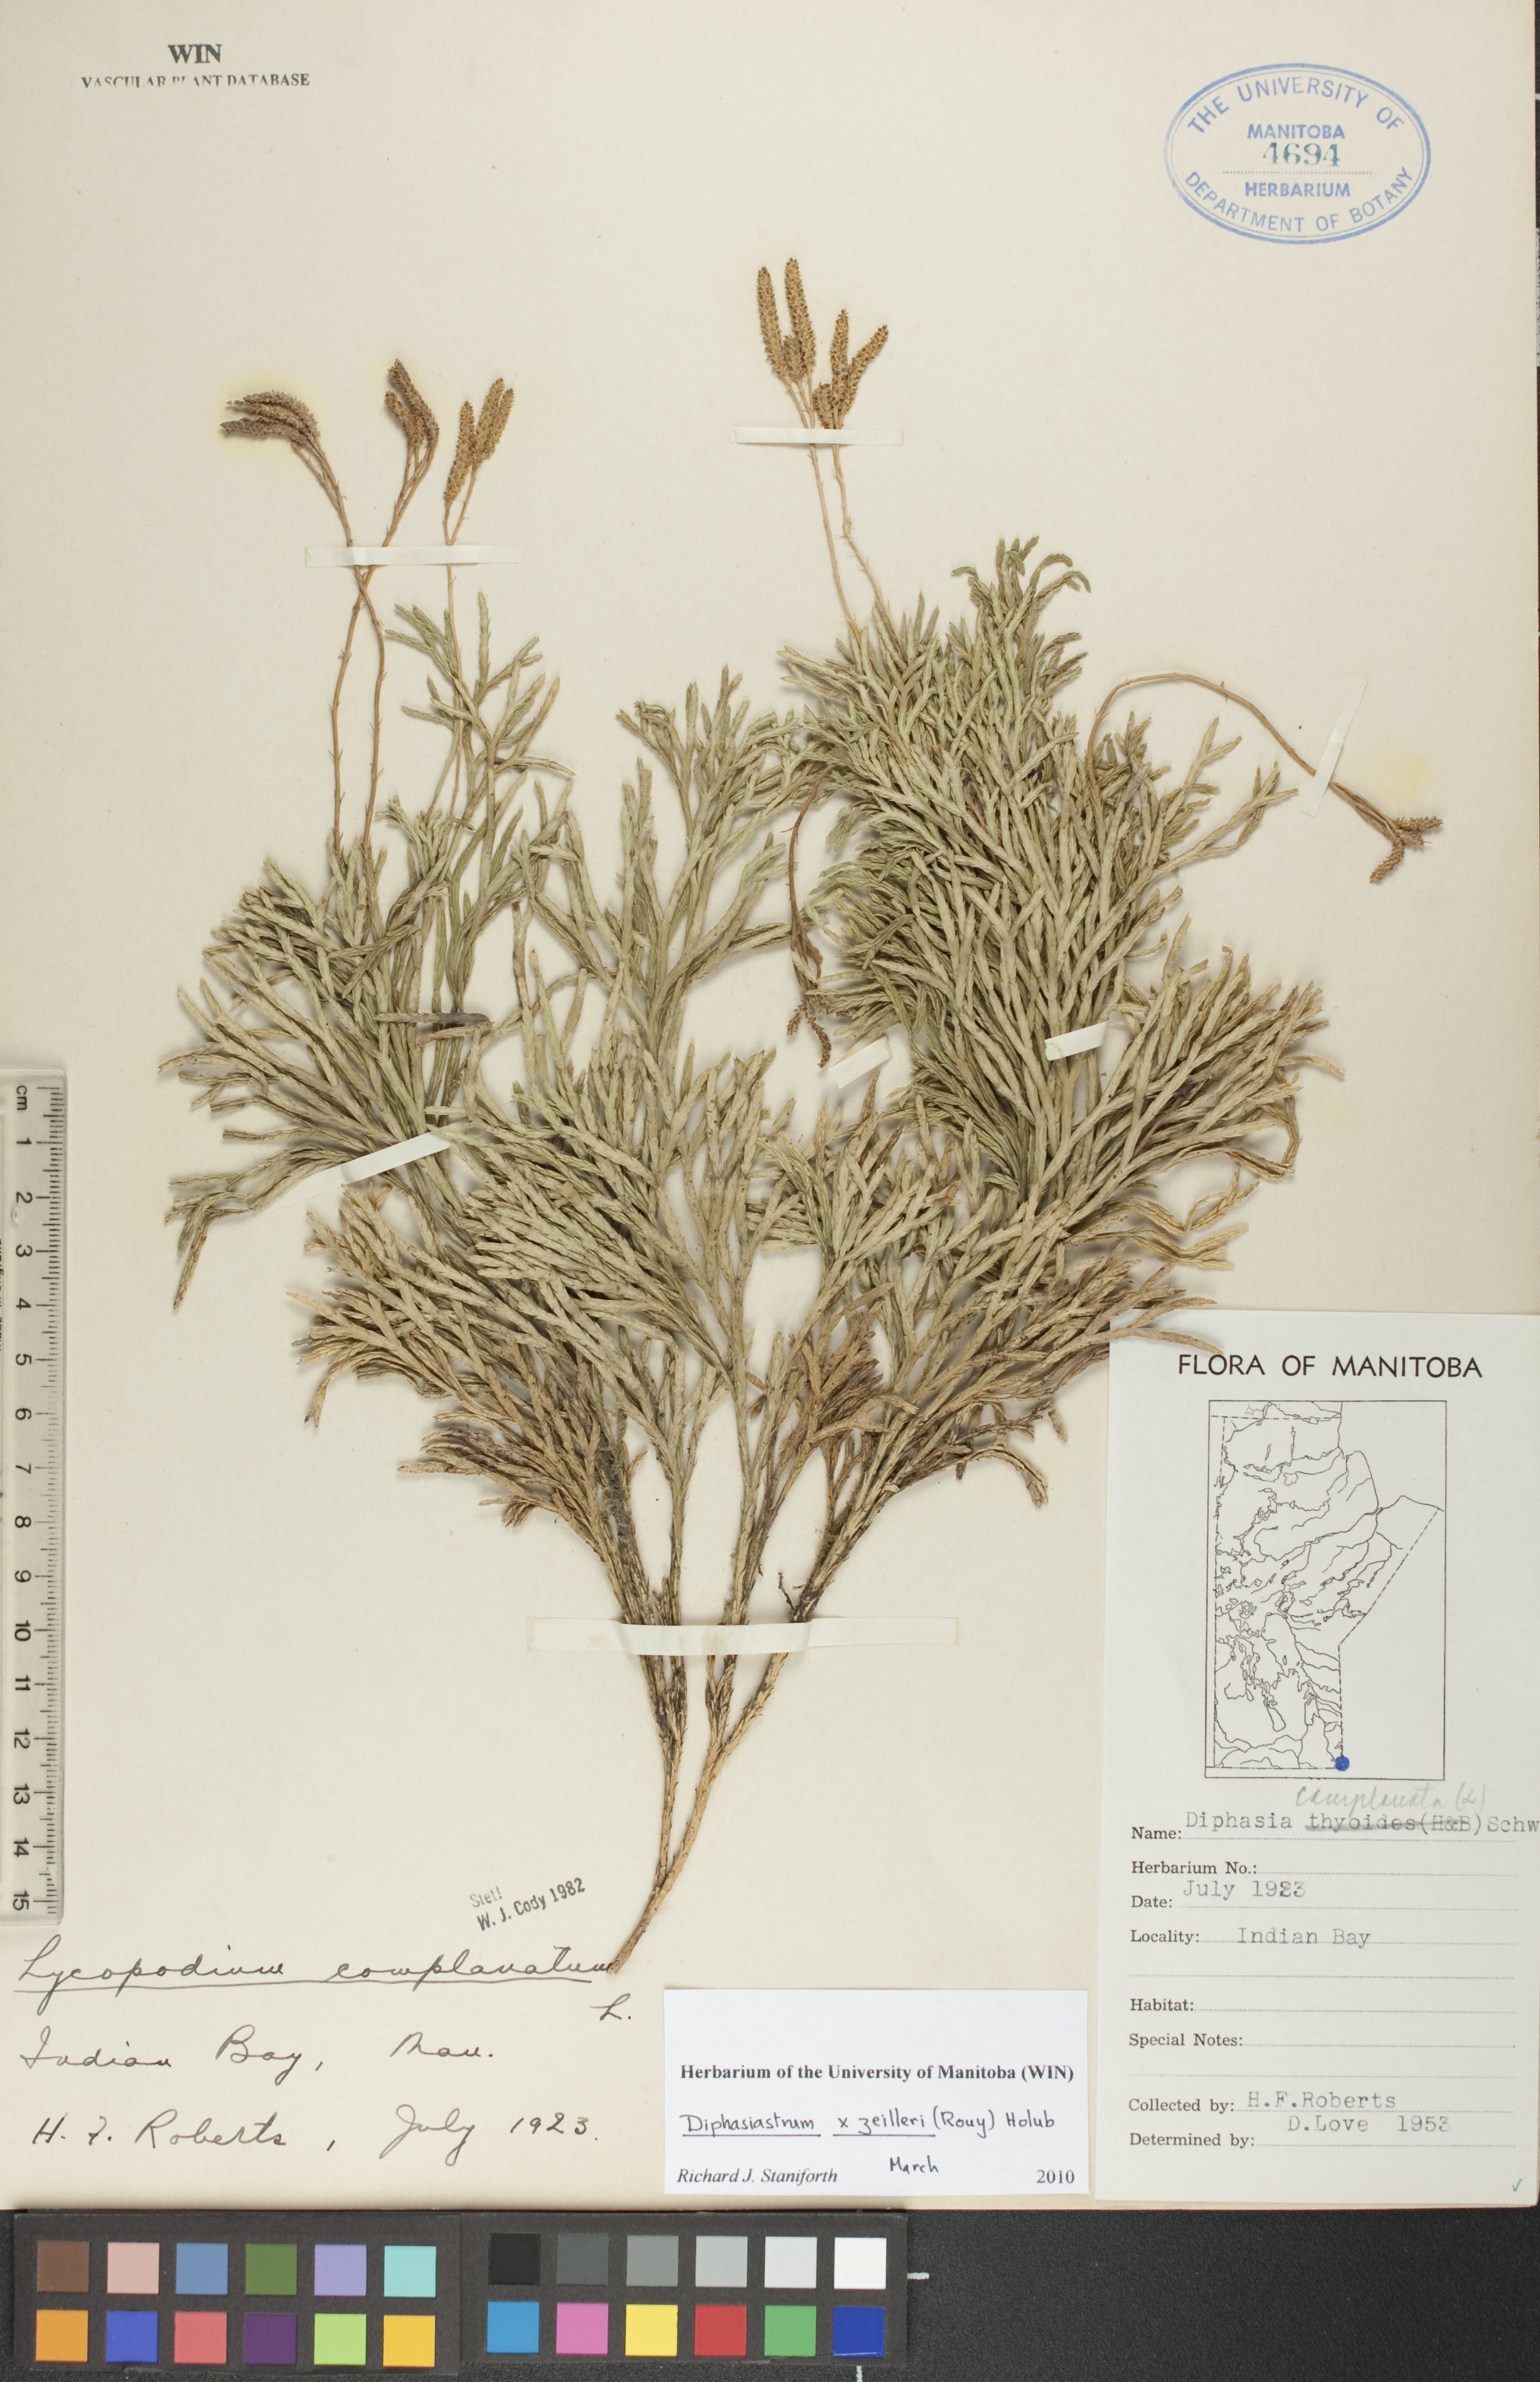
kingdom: Plantae
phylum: Tracheophyta
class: Lycopodiopsida
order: Lycopodiales
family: Lycopodiaceae
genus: Diphasiastrum
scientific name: Diphasiastrum zeilleri
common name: Zeiller's clubmoss
